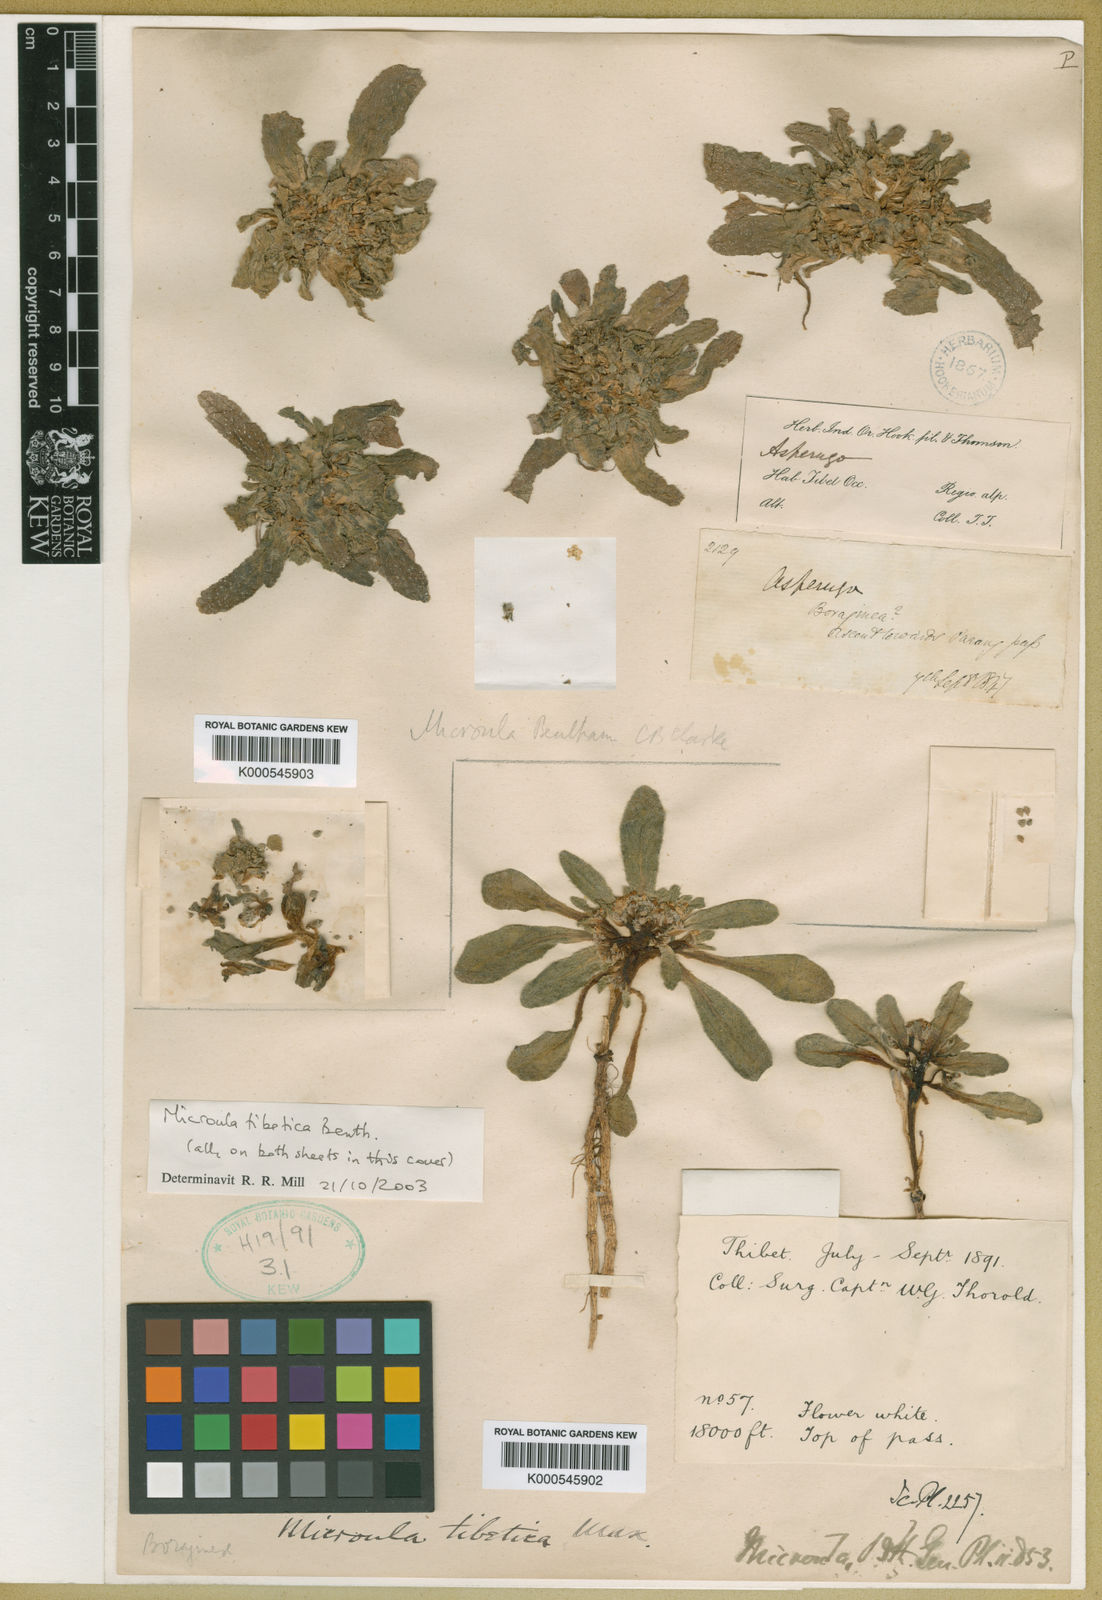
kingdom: Plantae
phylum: Tracheophyta
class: Magnoliopsida
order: Boraginales
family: Boraginaceae
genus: Microula
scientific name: Microula
